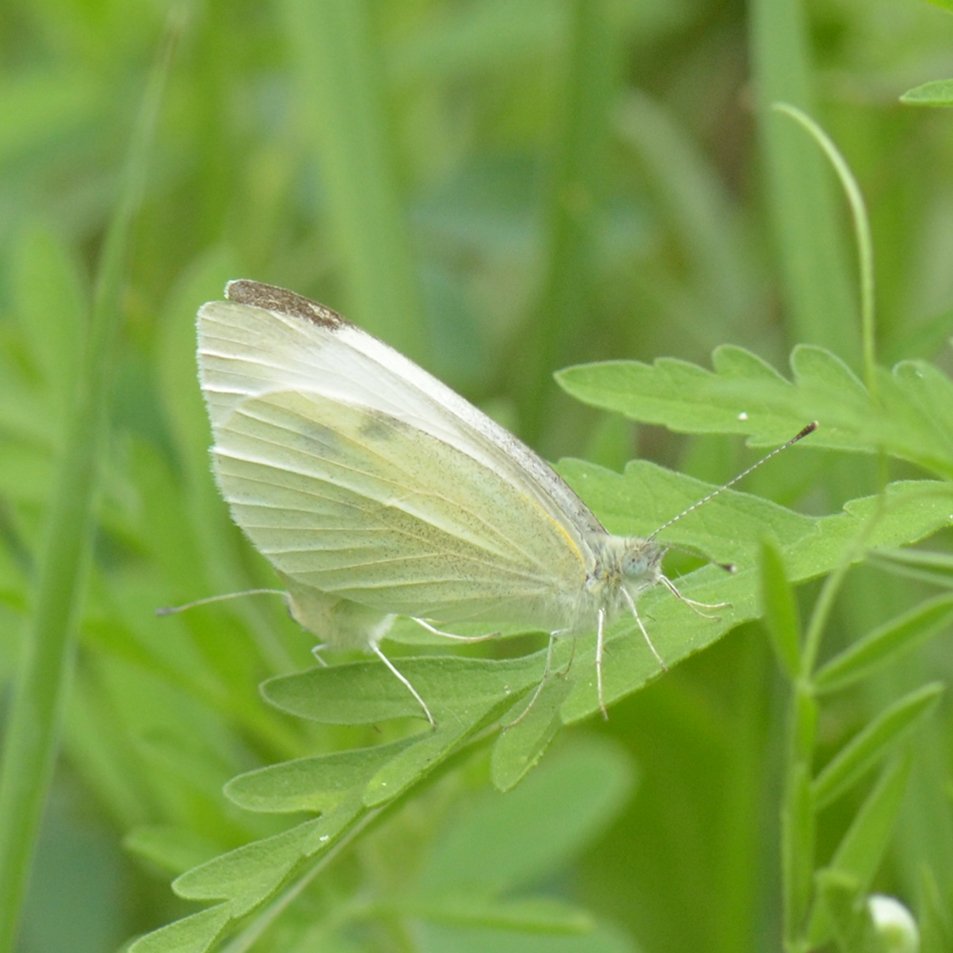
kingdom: Animalia
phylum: Arthropoda
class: Insecta
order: Lepidoptera
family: Pieridae
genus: Pieris
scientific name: Pieris rapae
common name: Cabbage White
